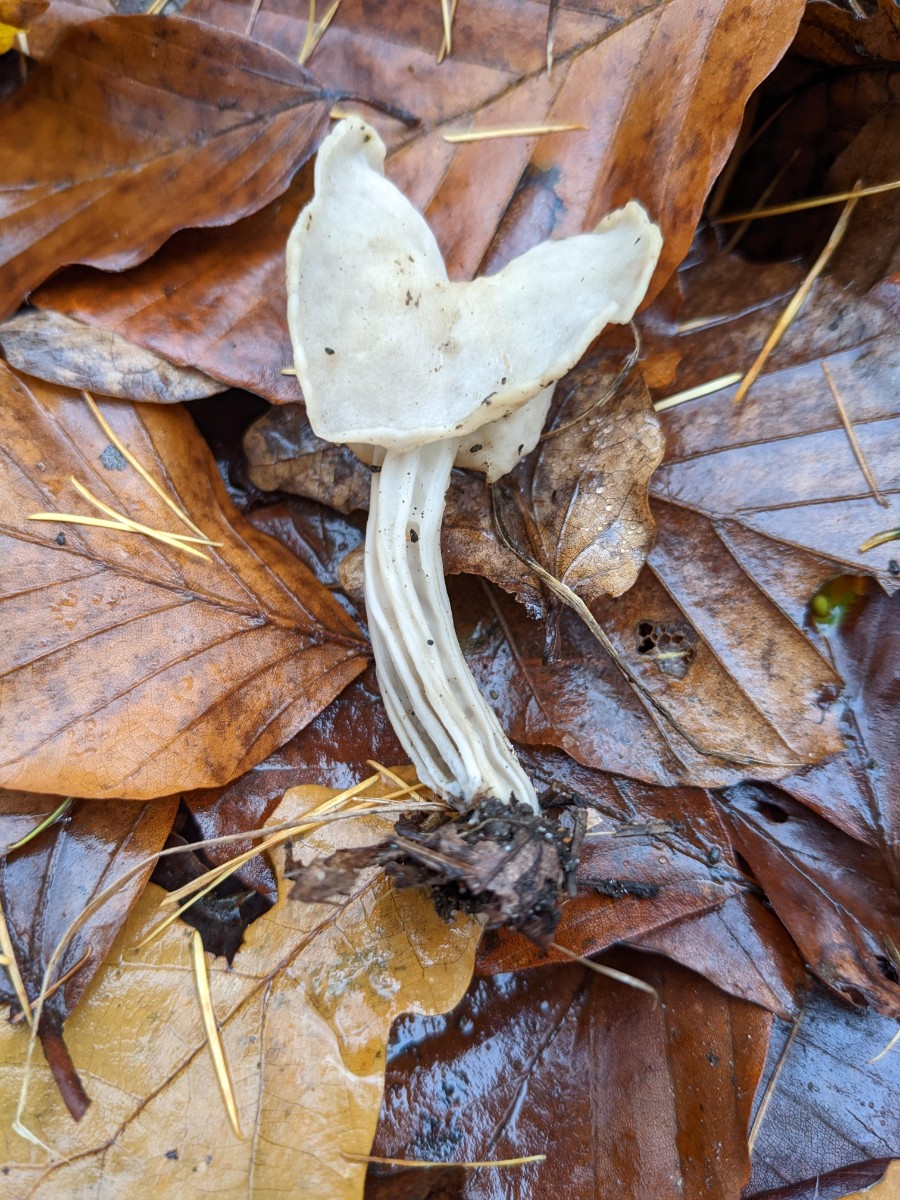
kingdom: Fungi
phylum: Ascomycota
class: Pezizomycetes
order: Pezizales
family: Helvellaceae
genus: Helvella
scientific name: Helvella
